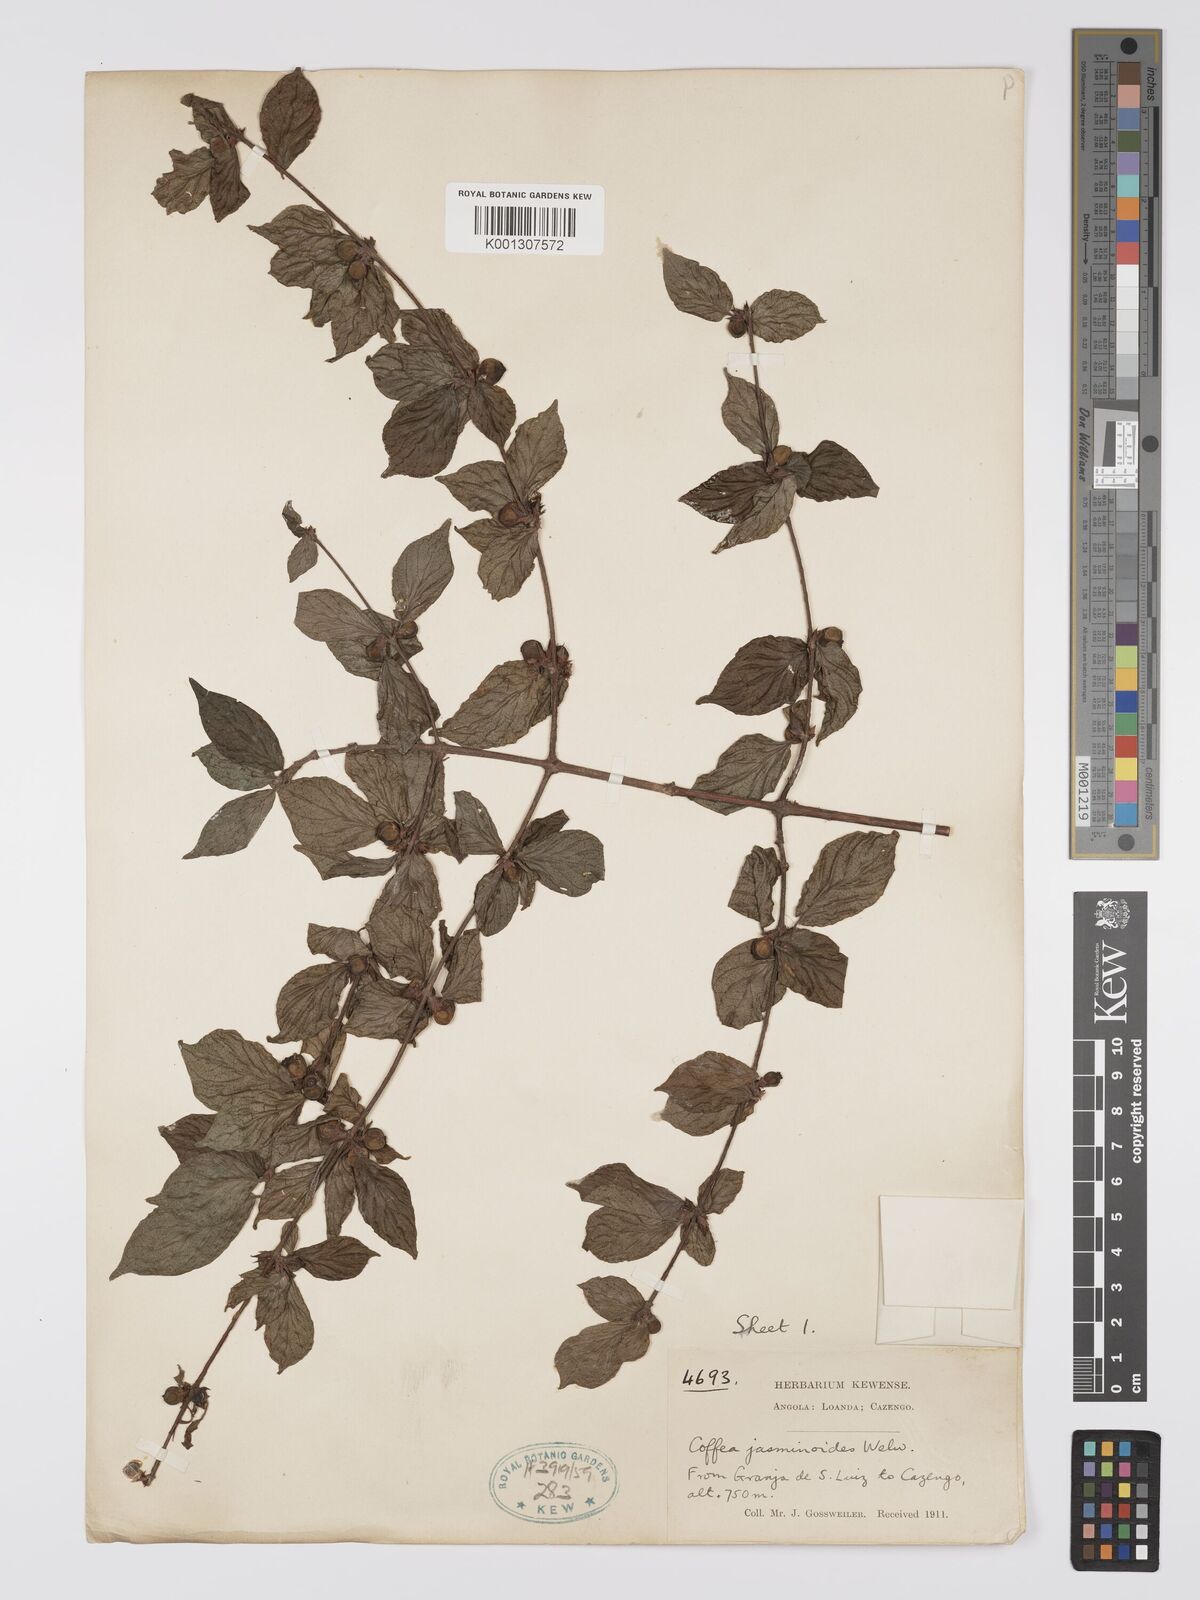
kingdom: Plantae
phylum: Tracheophyta
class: Magnoliopsida
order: Gentianales
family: Rubiaceae
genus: Argocoffeopsis
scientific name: Argocoffeopsis eketensis
